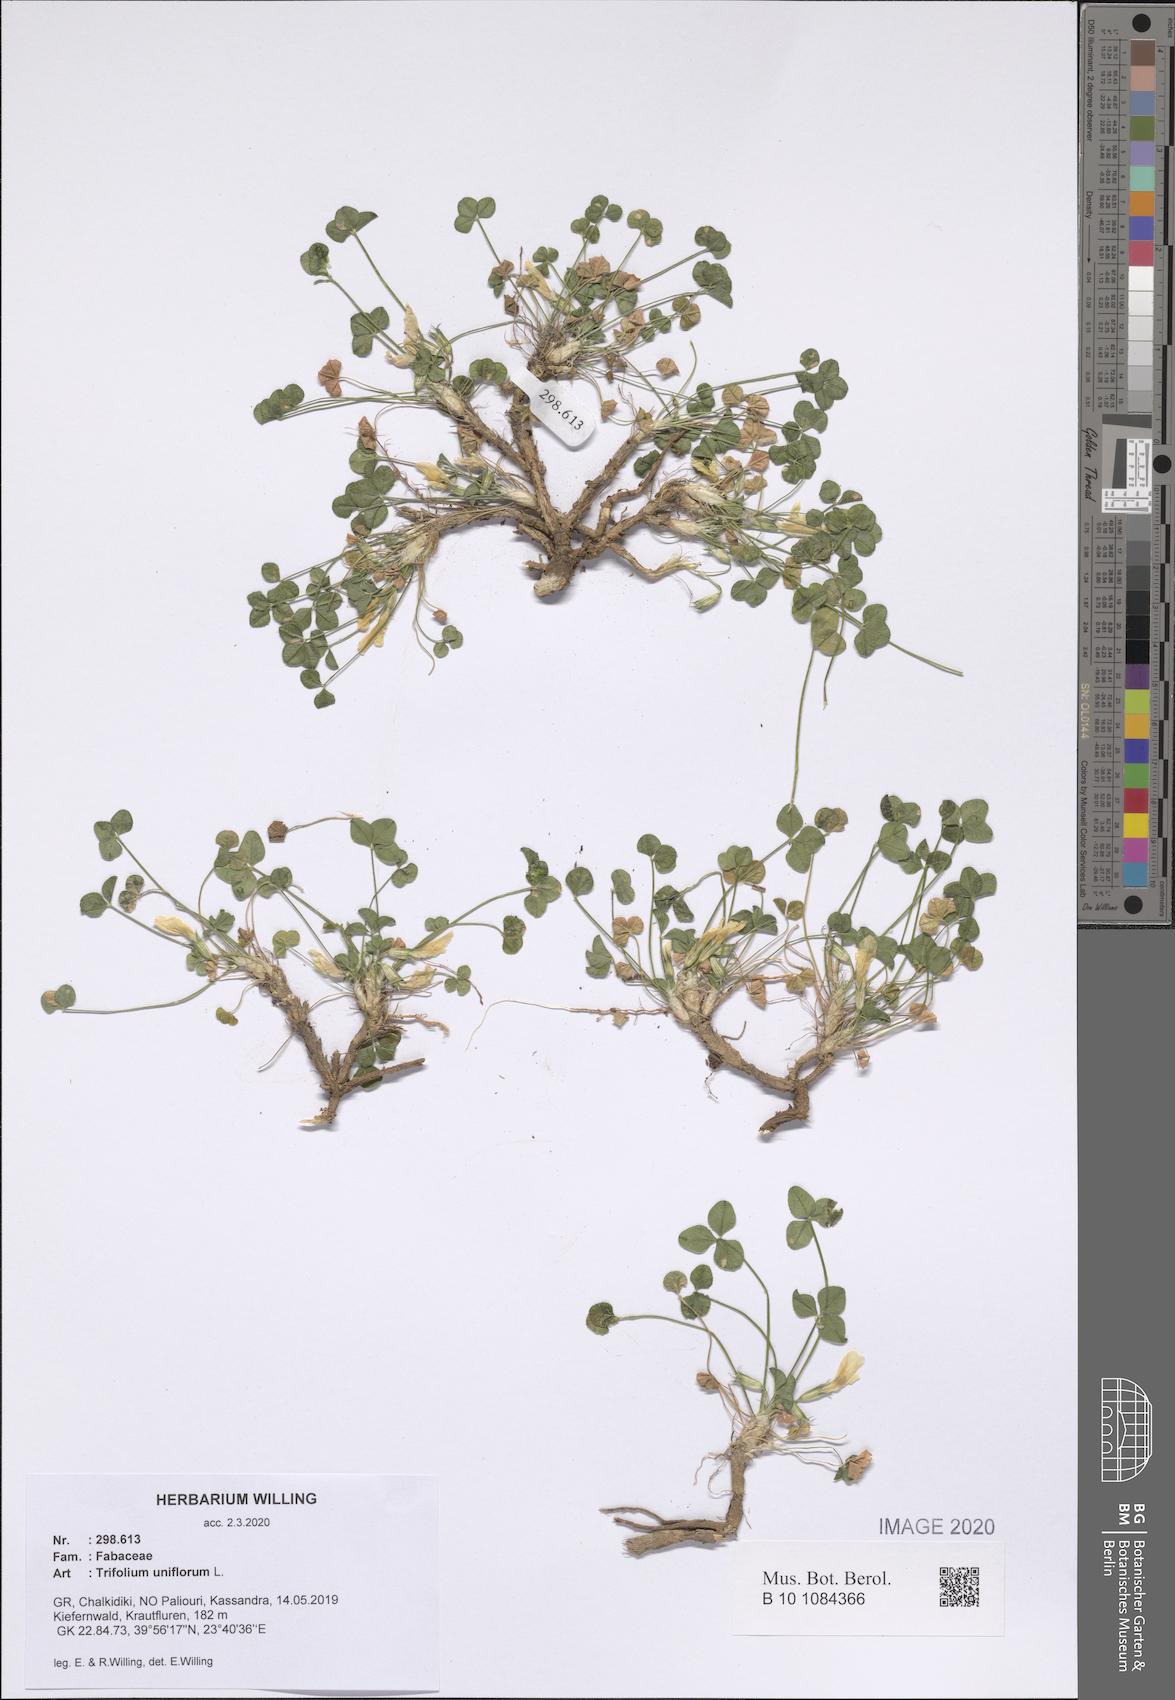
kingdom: Plantae
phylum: Tracheophyta
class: Magnoliopsida
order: Fabales
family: Fabaceae
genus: Trifolium
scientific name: Trifolium uniflorum
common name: One-flower clover
